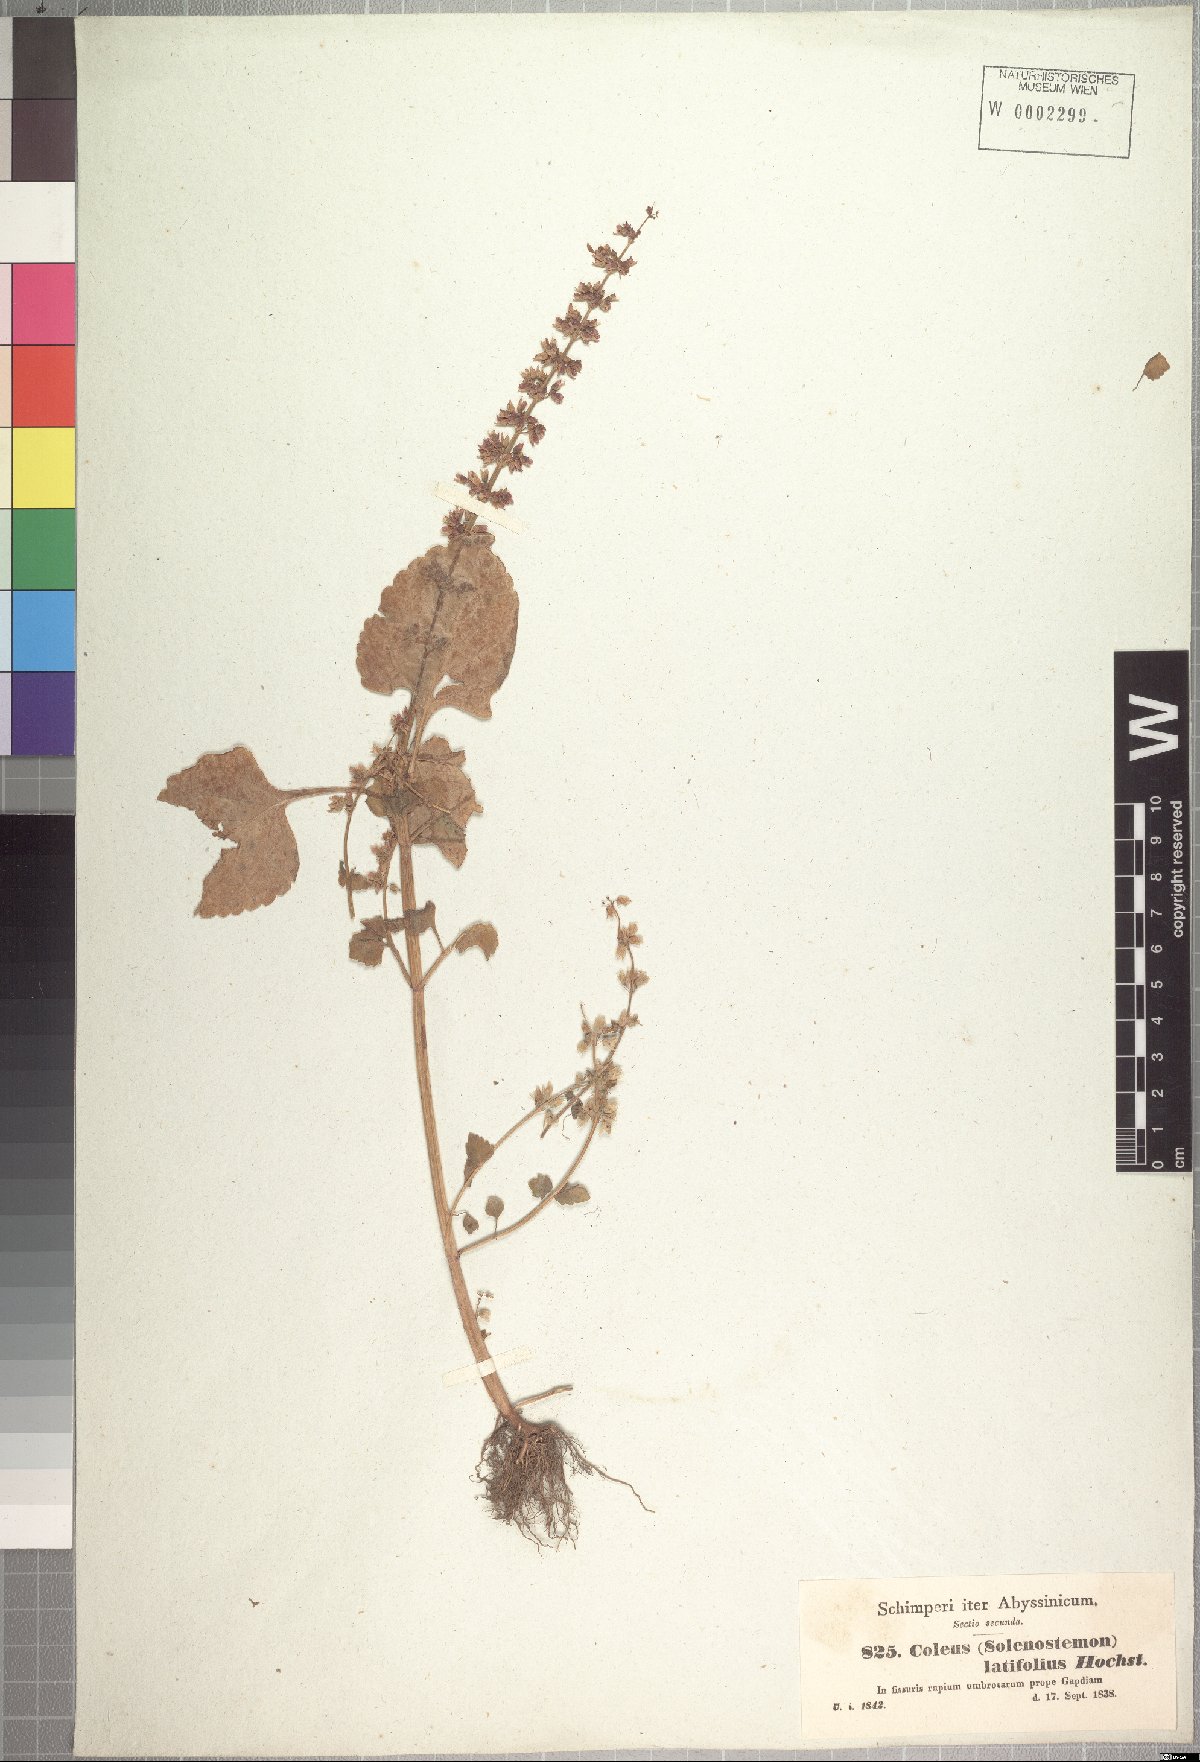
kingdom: Plantae
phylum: Tracheophyta
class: Magnoliopsida
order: Lamiales
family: Lamiaceae
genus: Coleus
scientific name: Coleus bojeri
